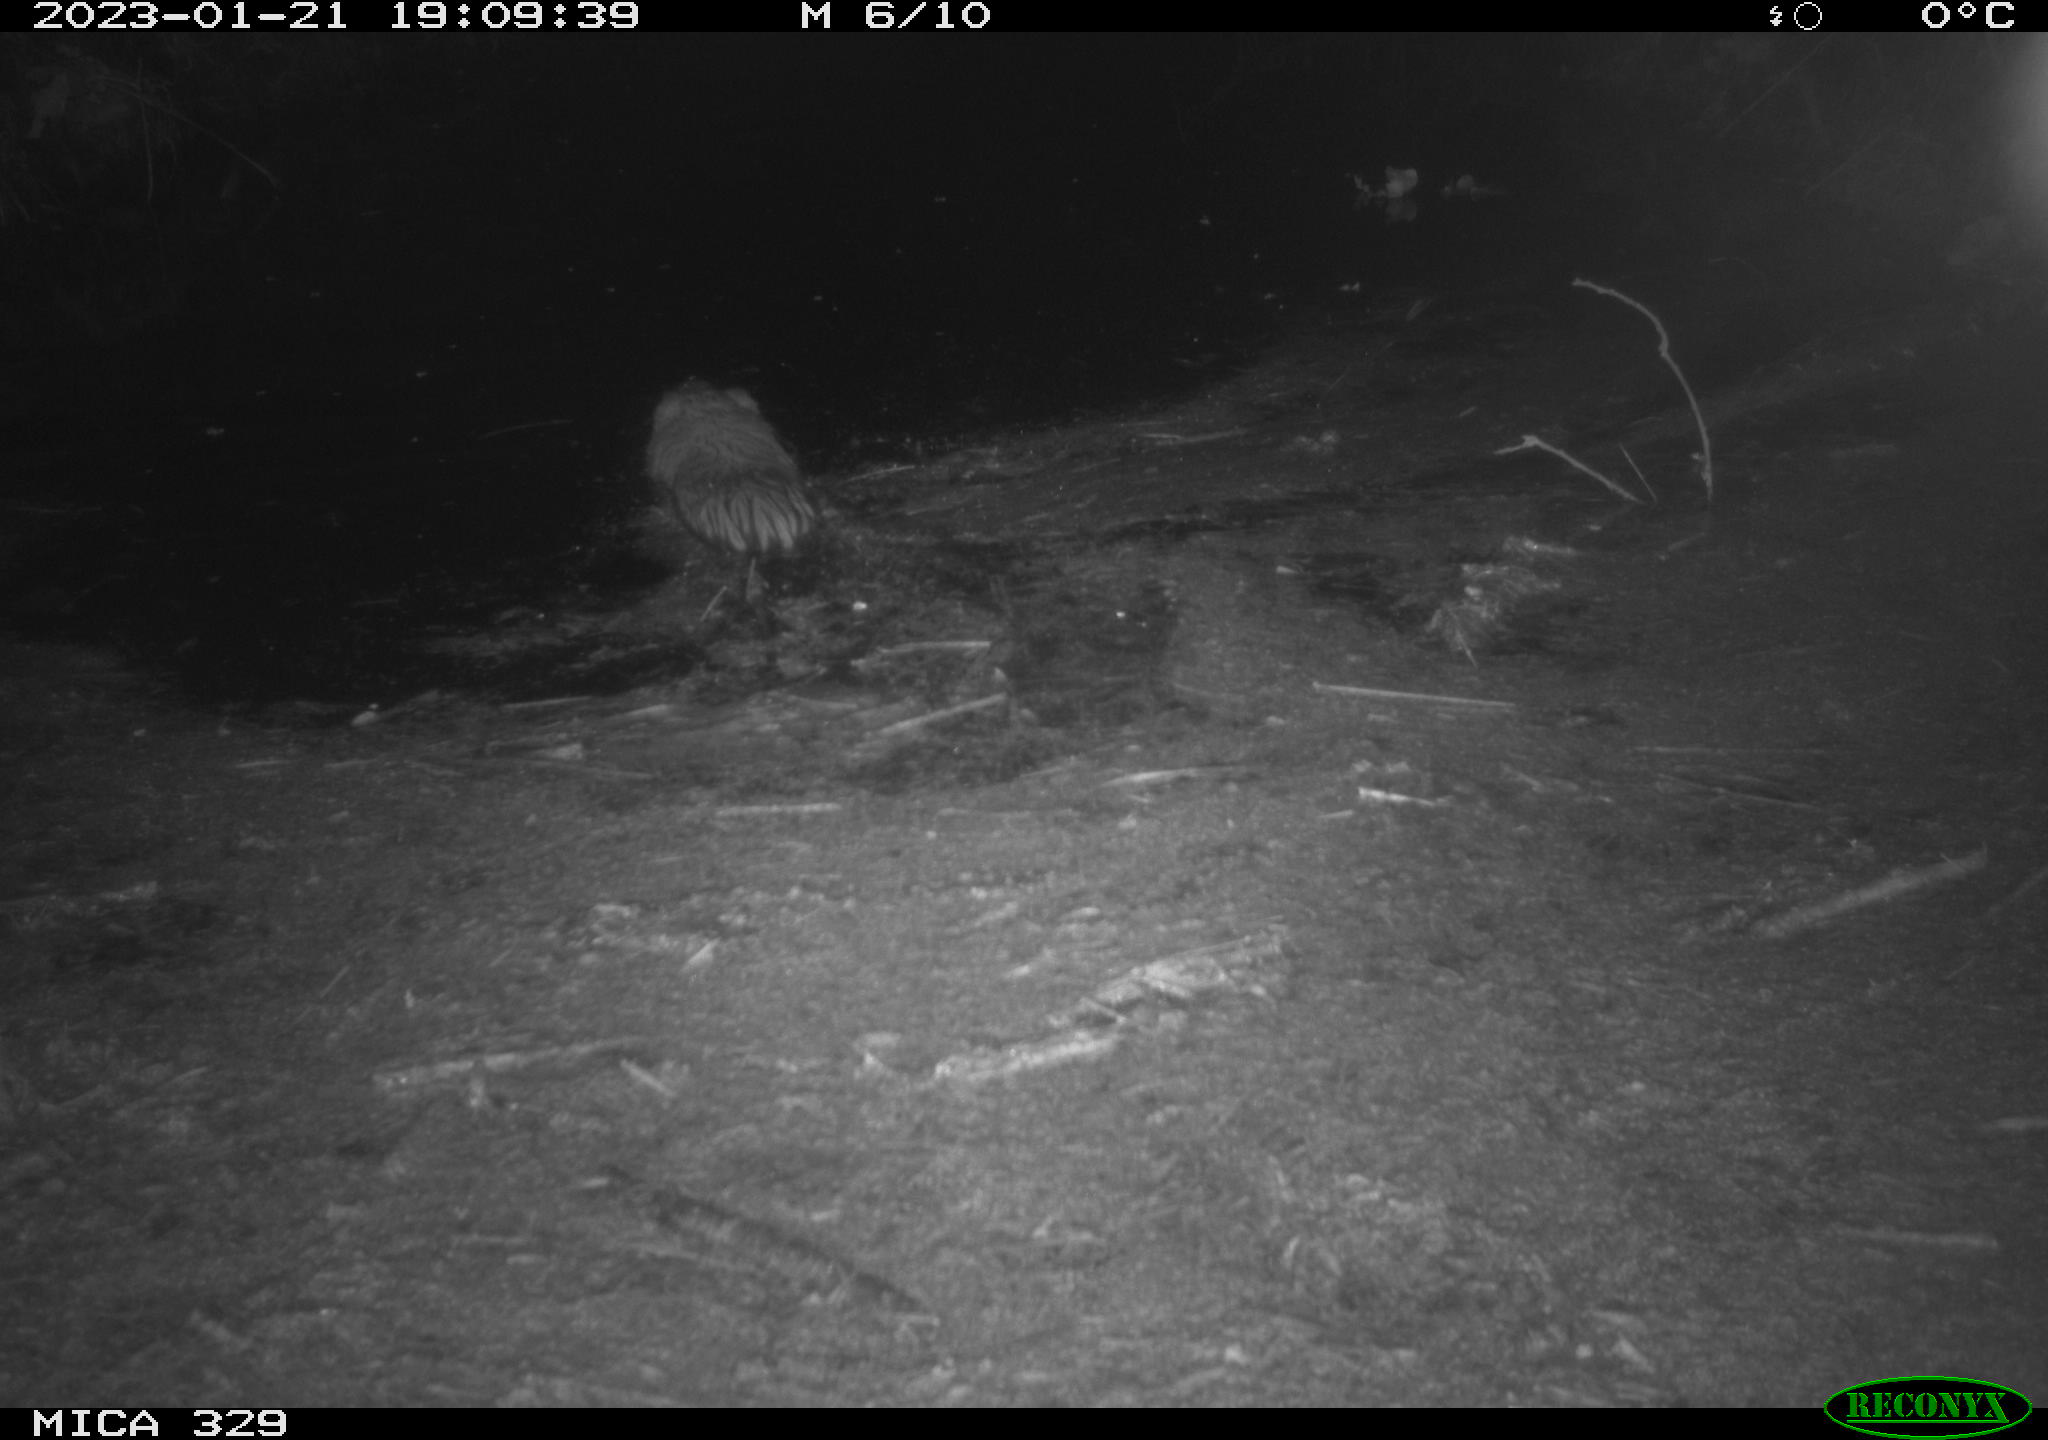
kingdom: Animalia
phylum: Chordata
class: Mammalia
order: Rodentia
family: Cricetidae
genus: Ondatra
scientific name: Ondatra zibethicus
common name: Muskrat
